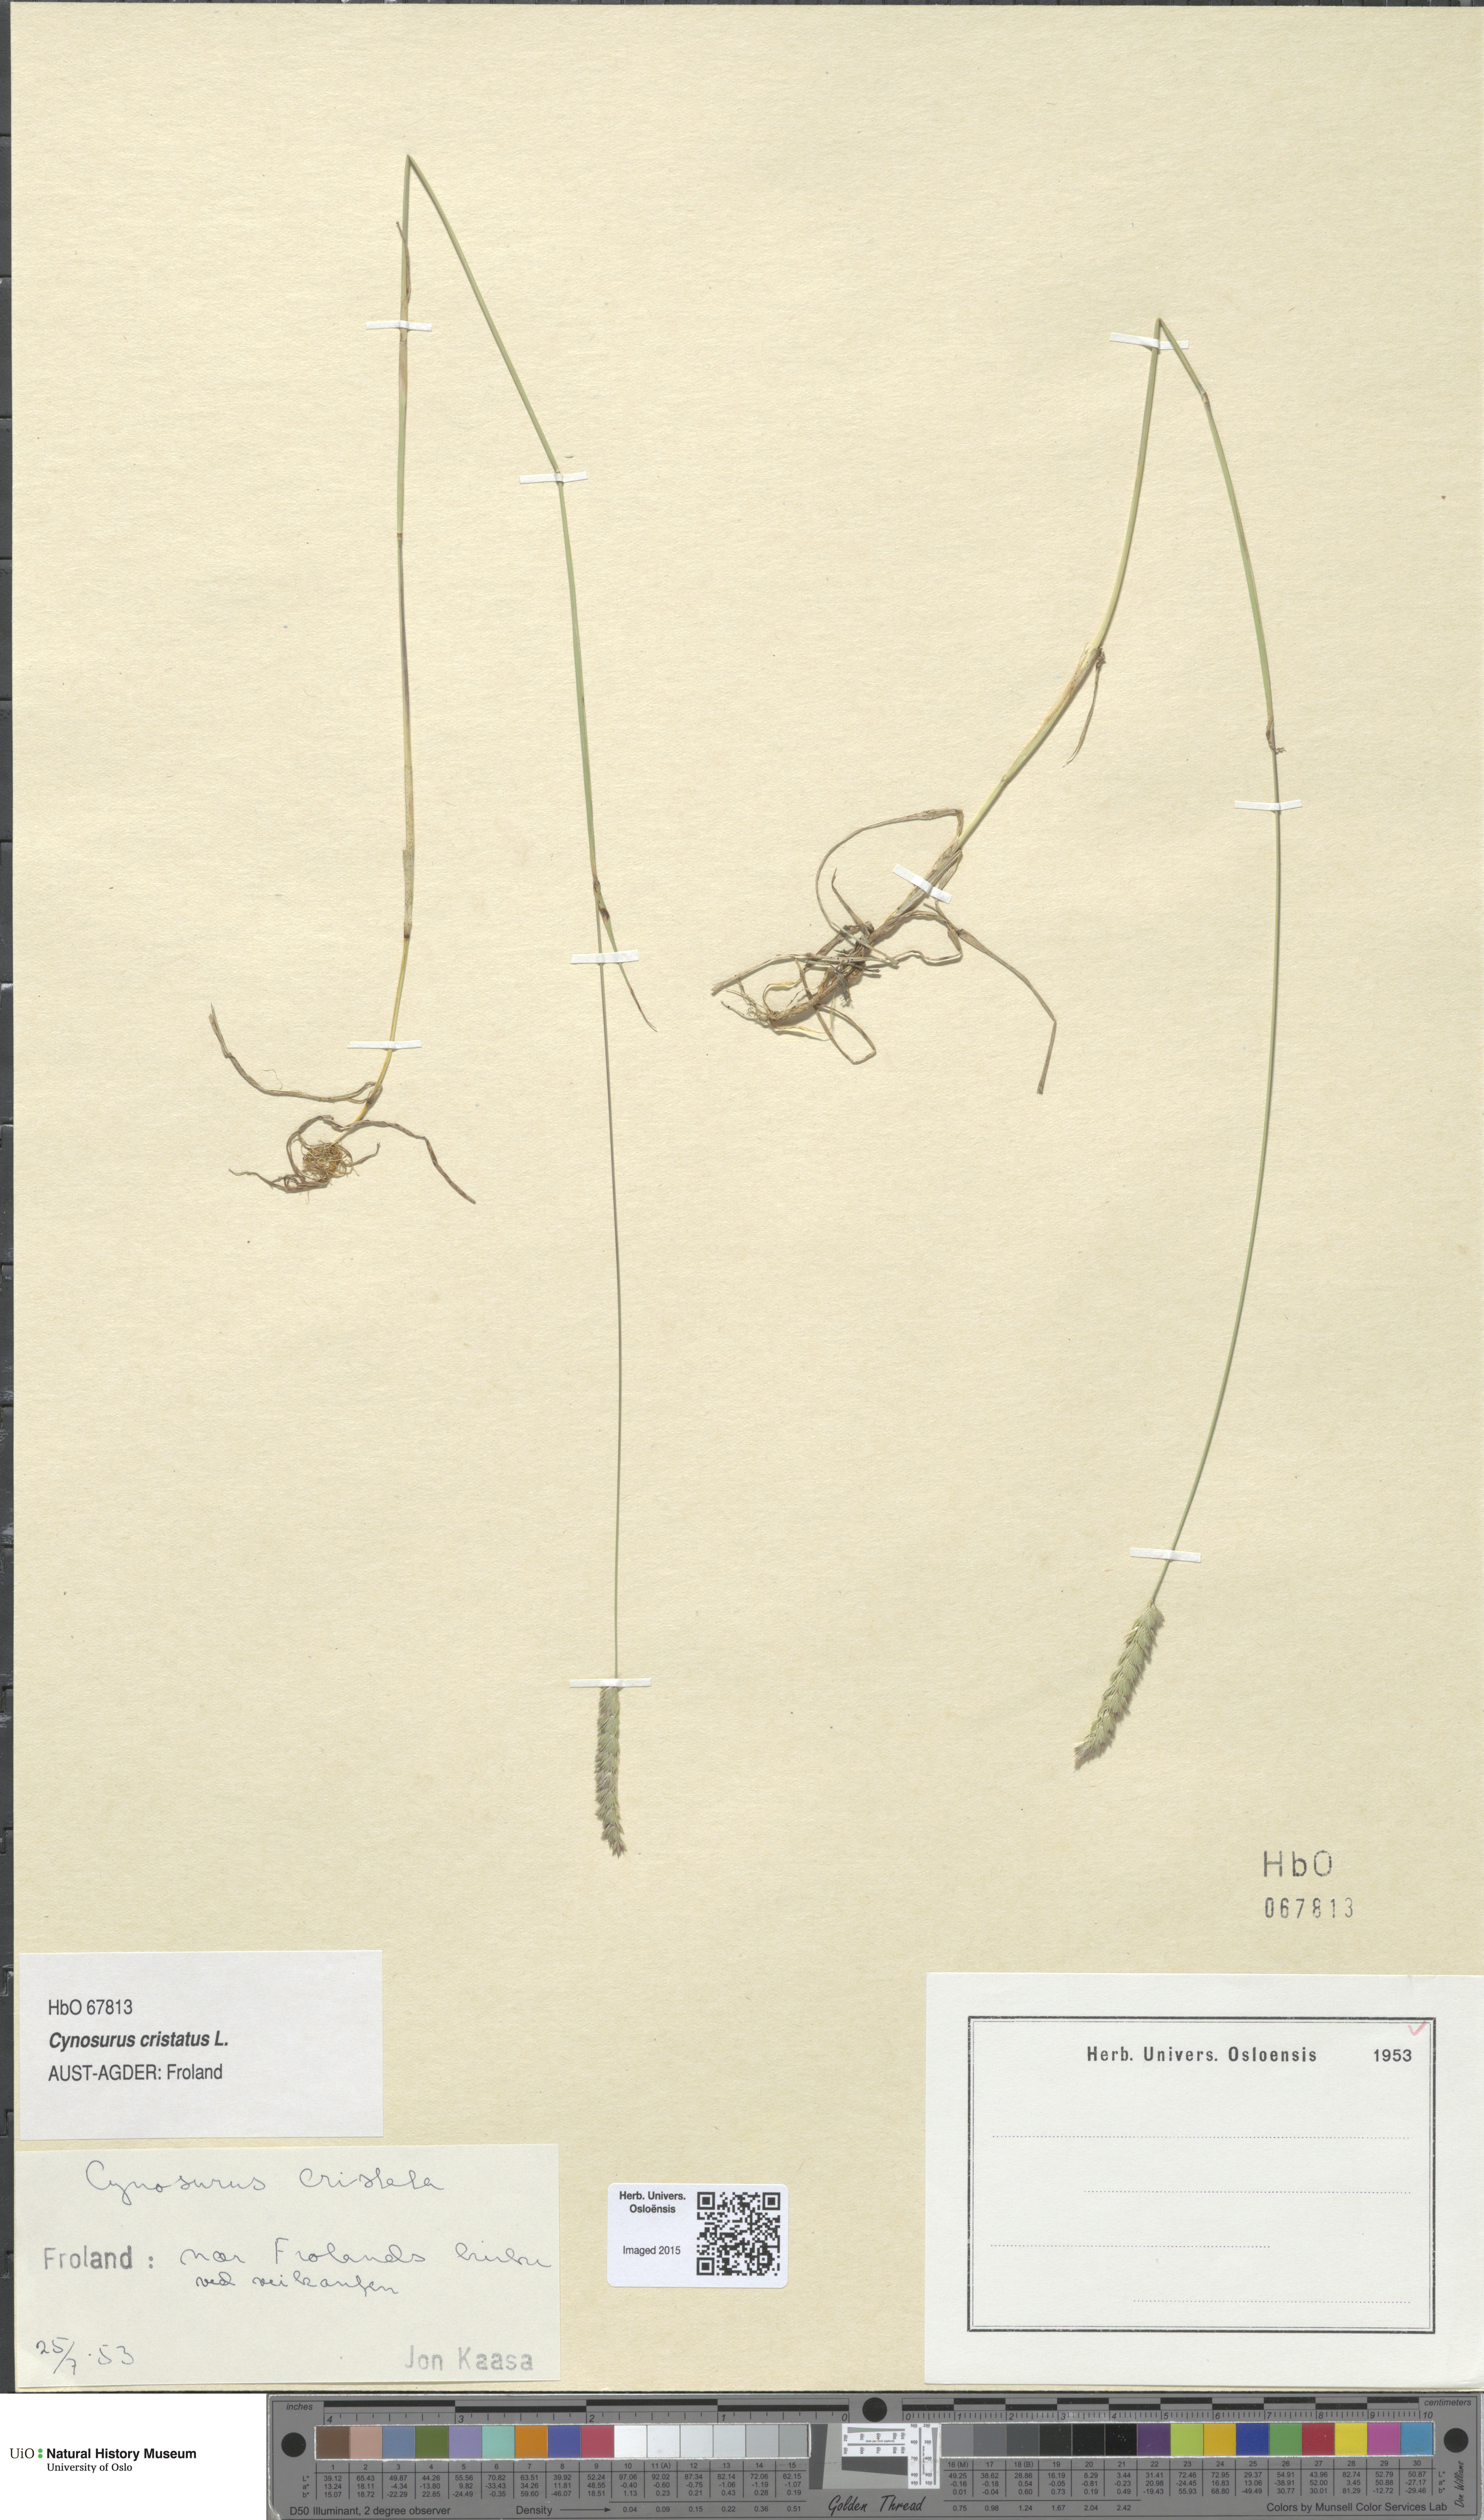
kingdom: Plantae
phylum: Tracheophyta
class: Liliopsida
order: Poales
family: Poaceae
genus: Cynosurus
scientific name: Cynosurus cristatus
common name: Crested dog's-tail
